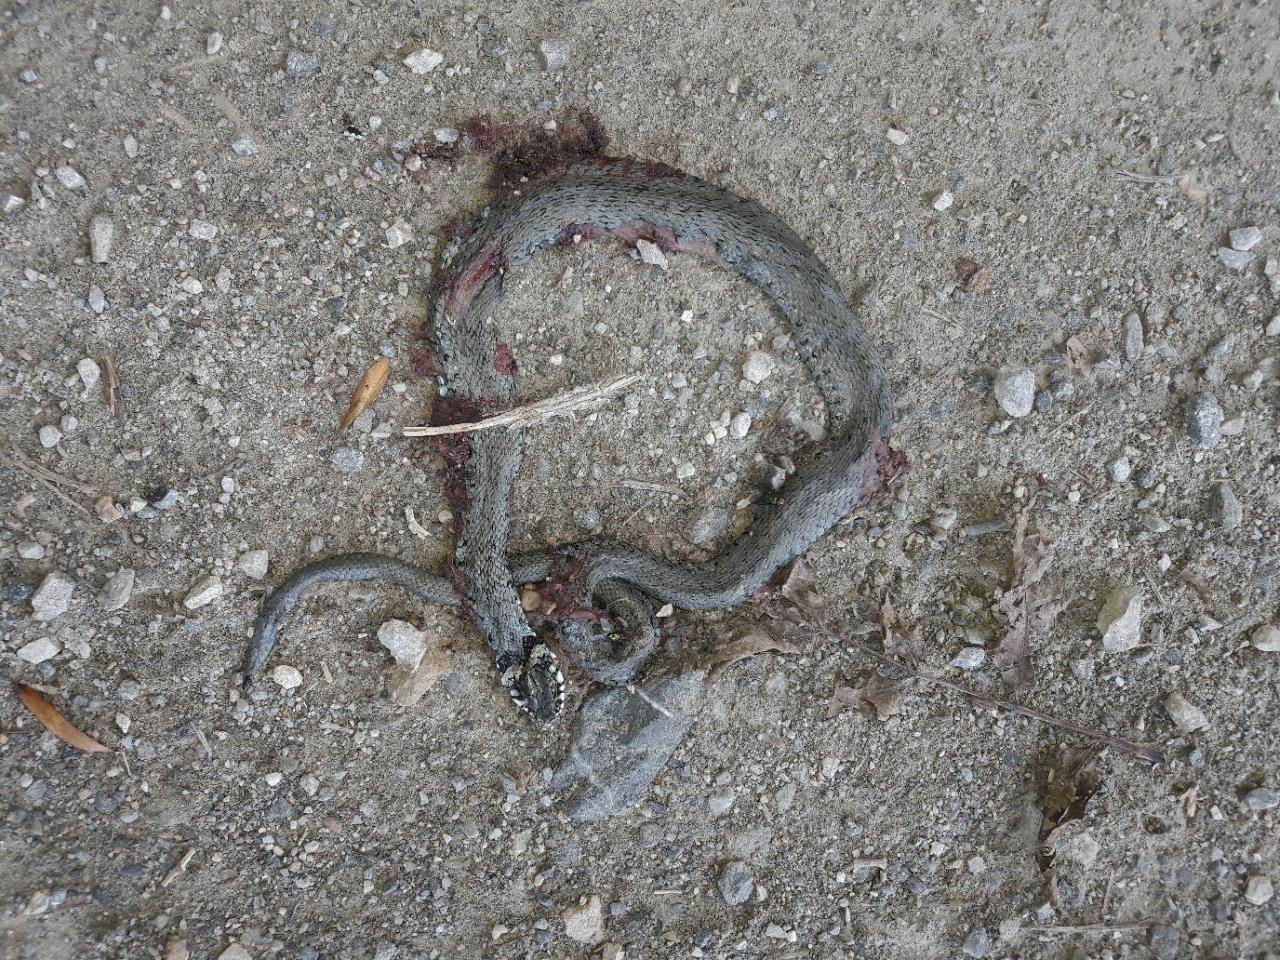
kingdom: Animalia
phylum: Chordata
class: Squamata
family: Colubridae
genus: Natrix
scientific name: Natrix natrix
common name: Grass snake
